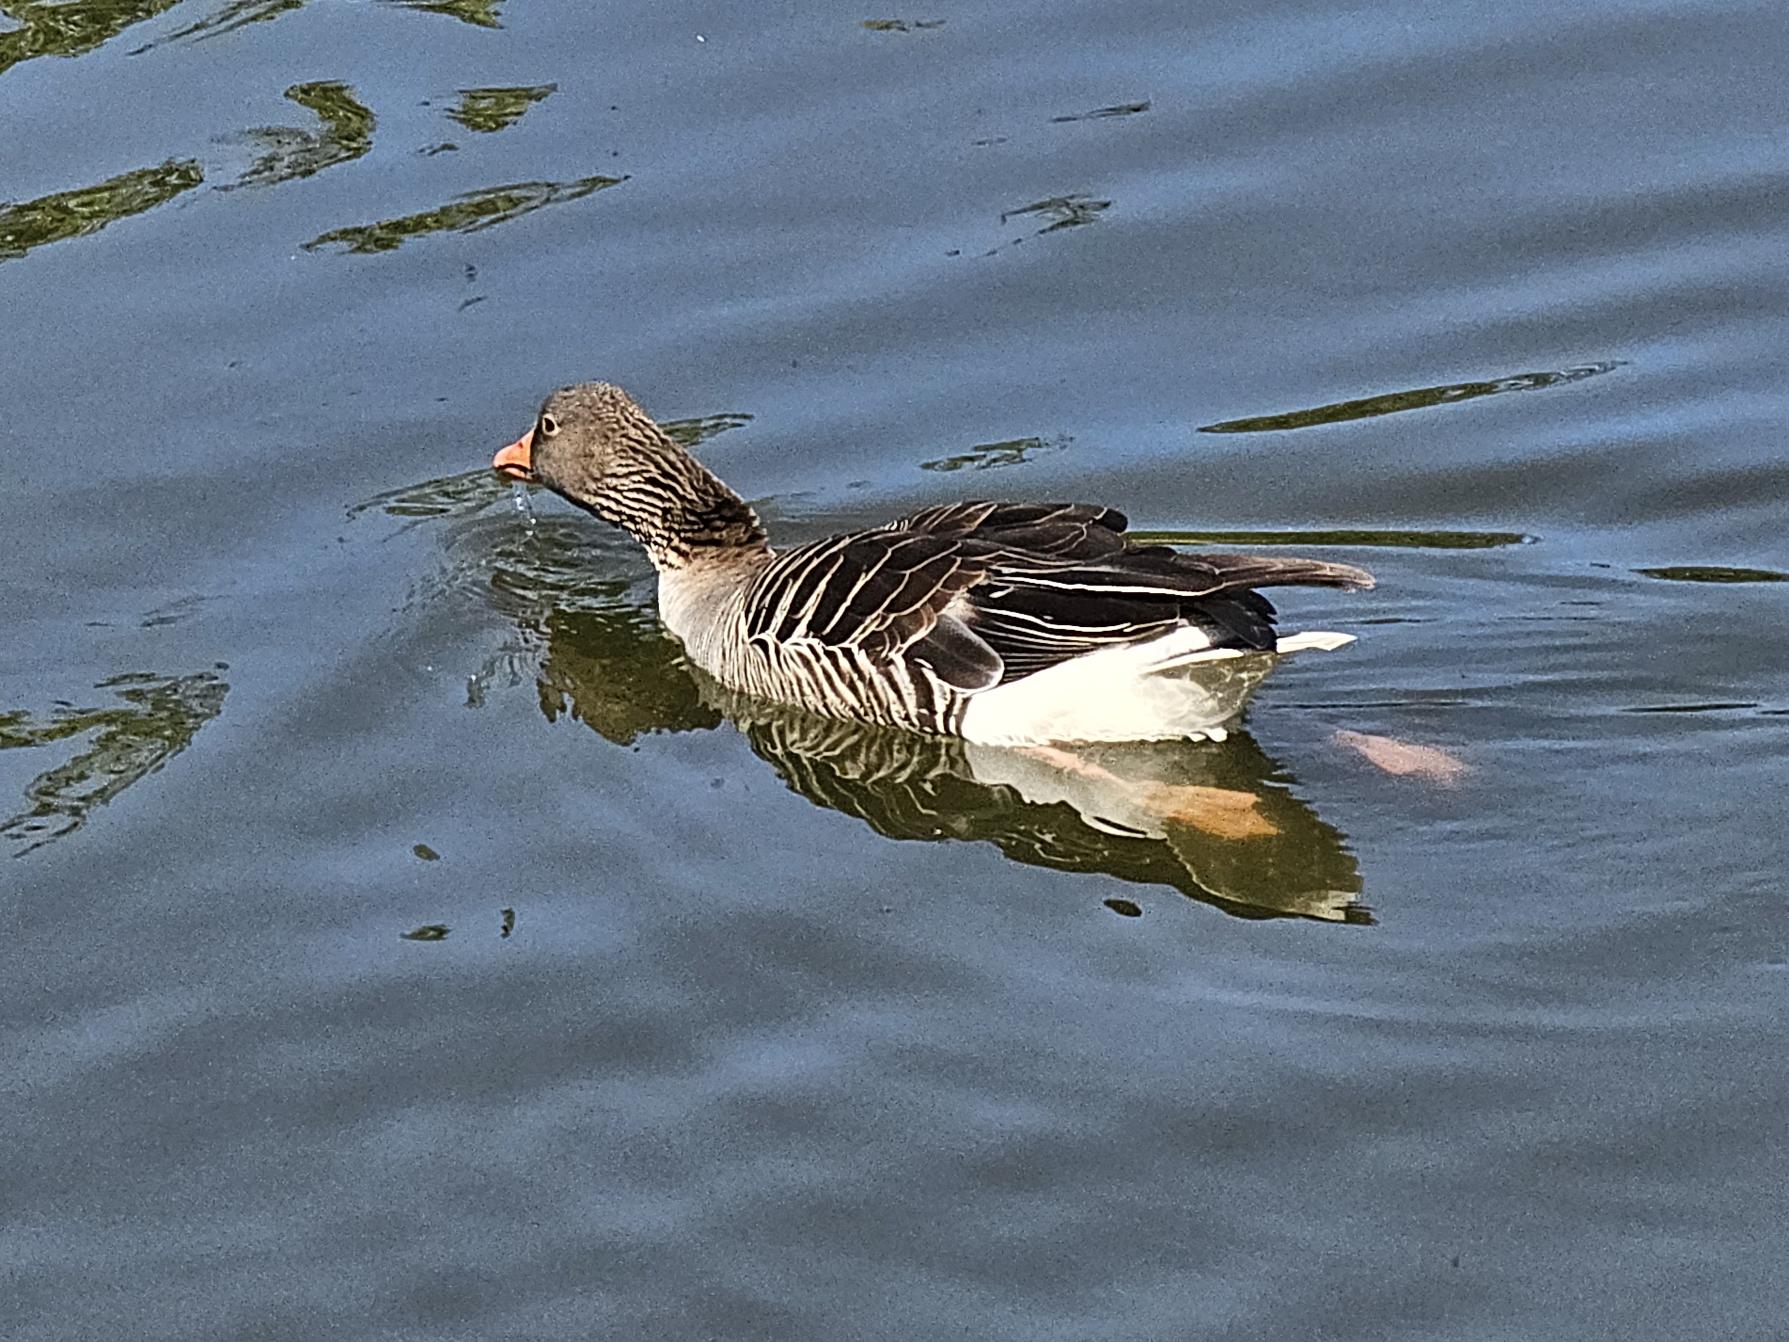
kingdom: Animalia
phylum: Chordata
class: Aves
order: Anseriformes
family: Anatidae
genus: Anser
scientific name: Anser anser
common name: Grågås
